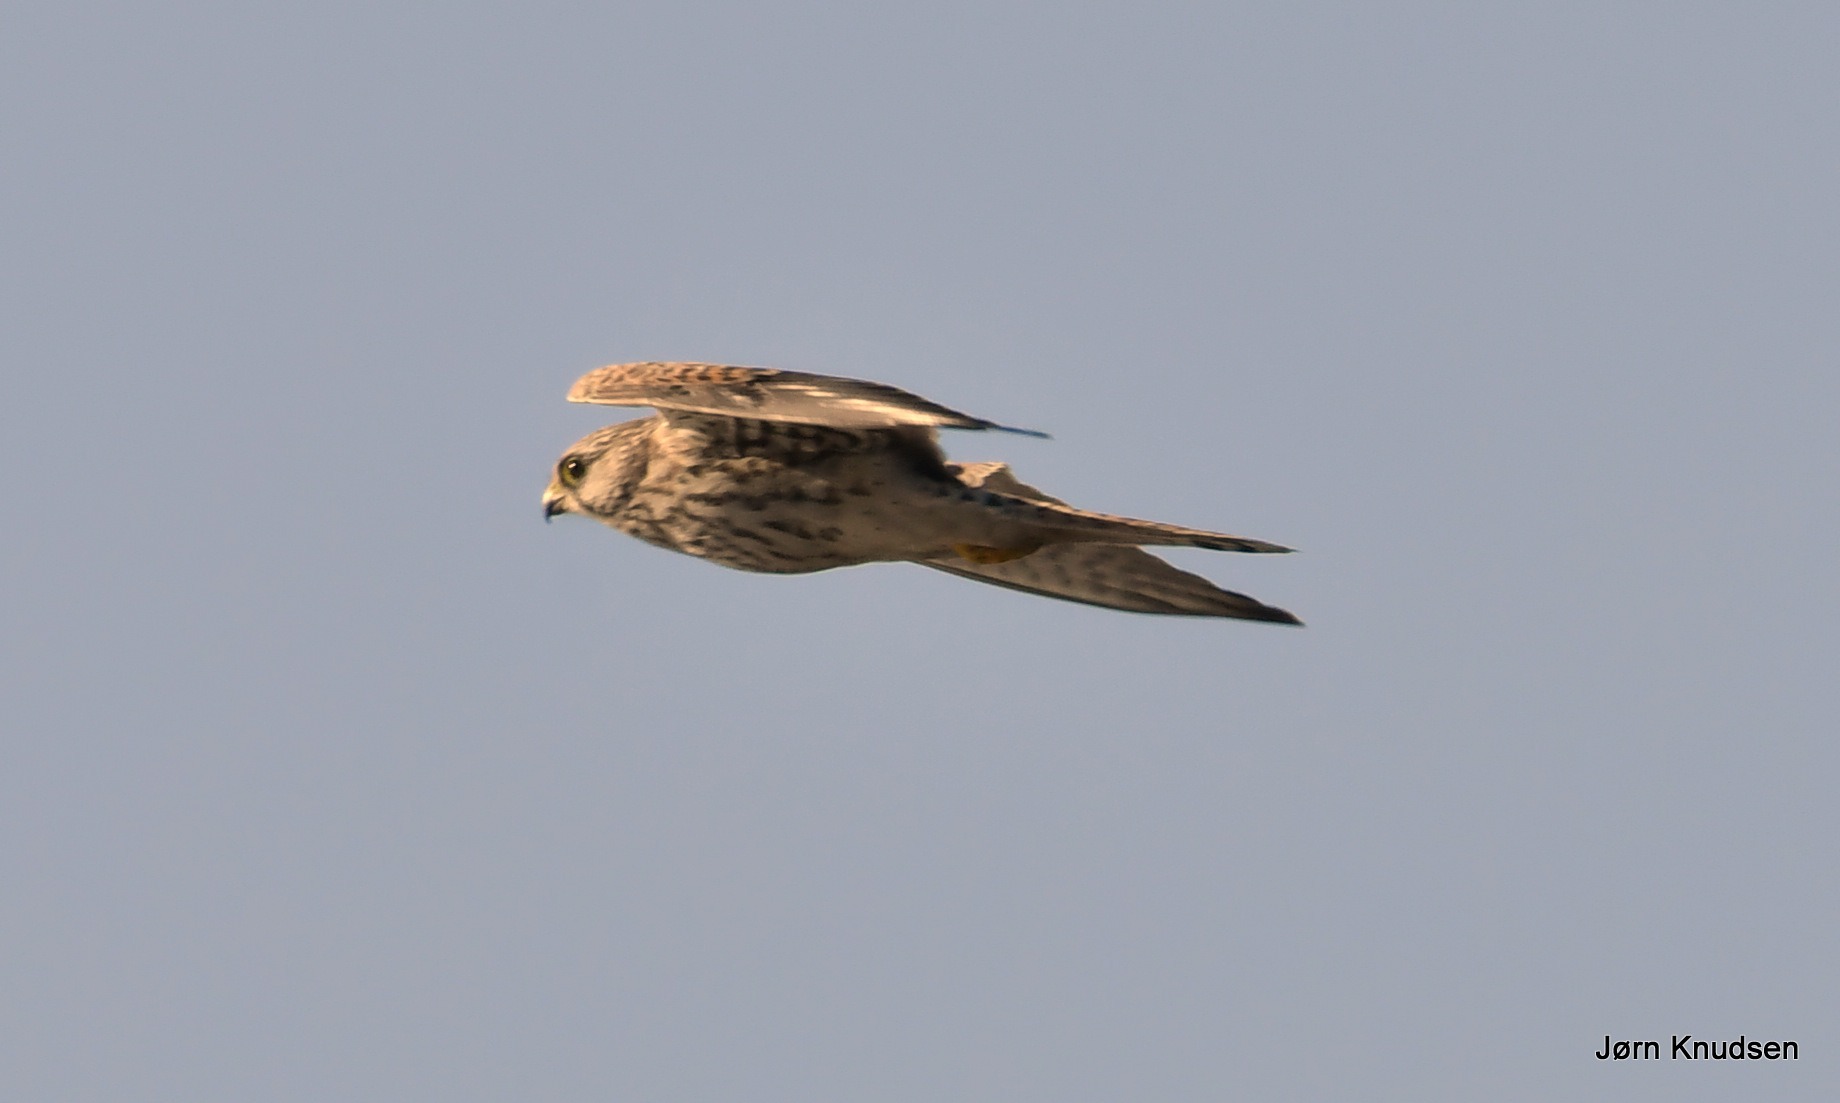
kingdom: Animalia
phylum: Chordata
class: Aves
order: Falconiformes
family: Falconidae
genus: Falco
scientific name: Falco tinnunculus
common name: Tårnfalk
